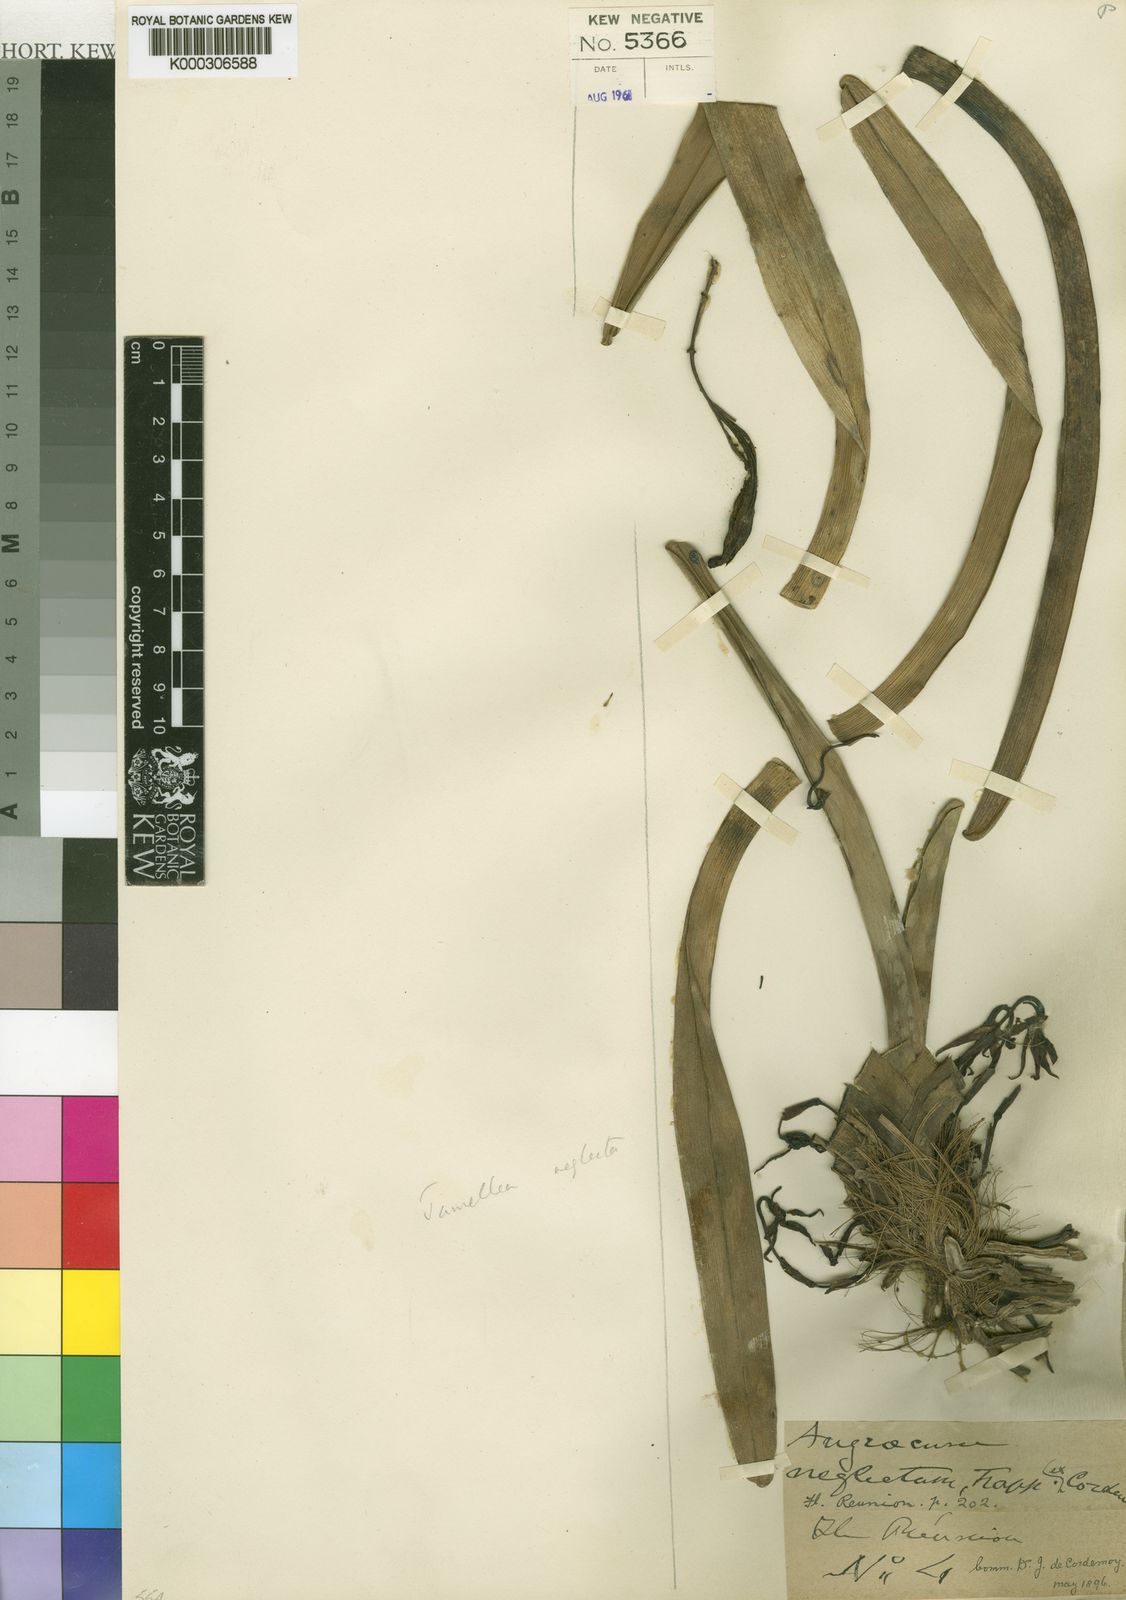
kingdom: Plantae
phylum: Tracheophyta
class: Liliopsida
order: Asparagales
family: Orchidaceae
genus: Jumellea
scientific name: Jumellea triquetra
